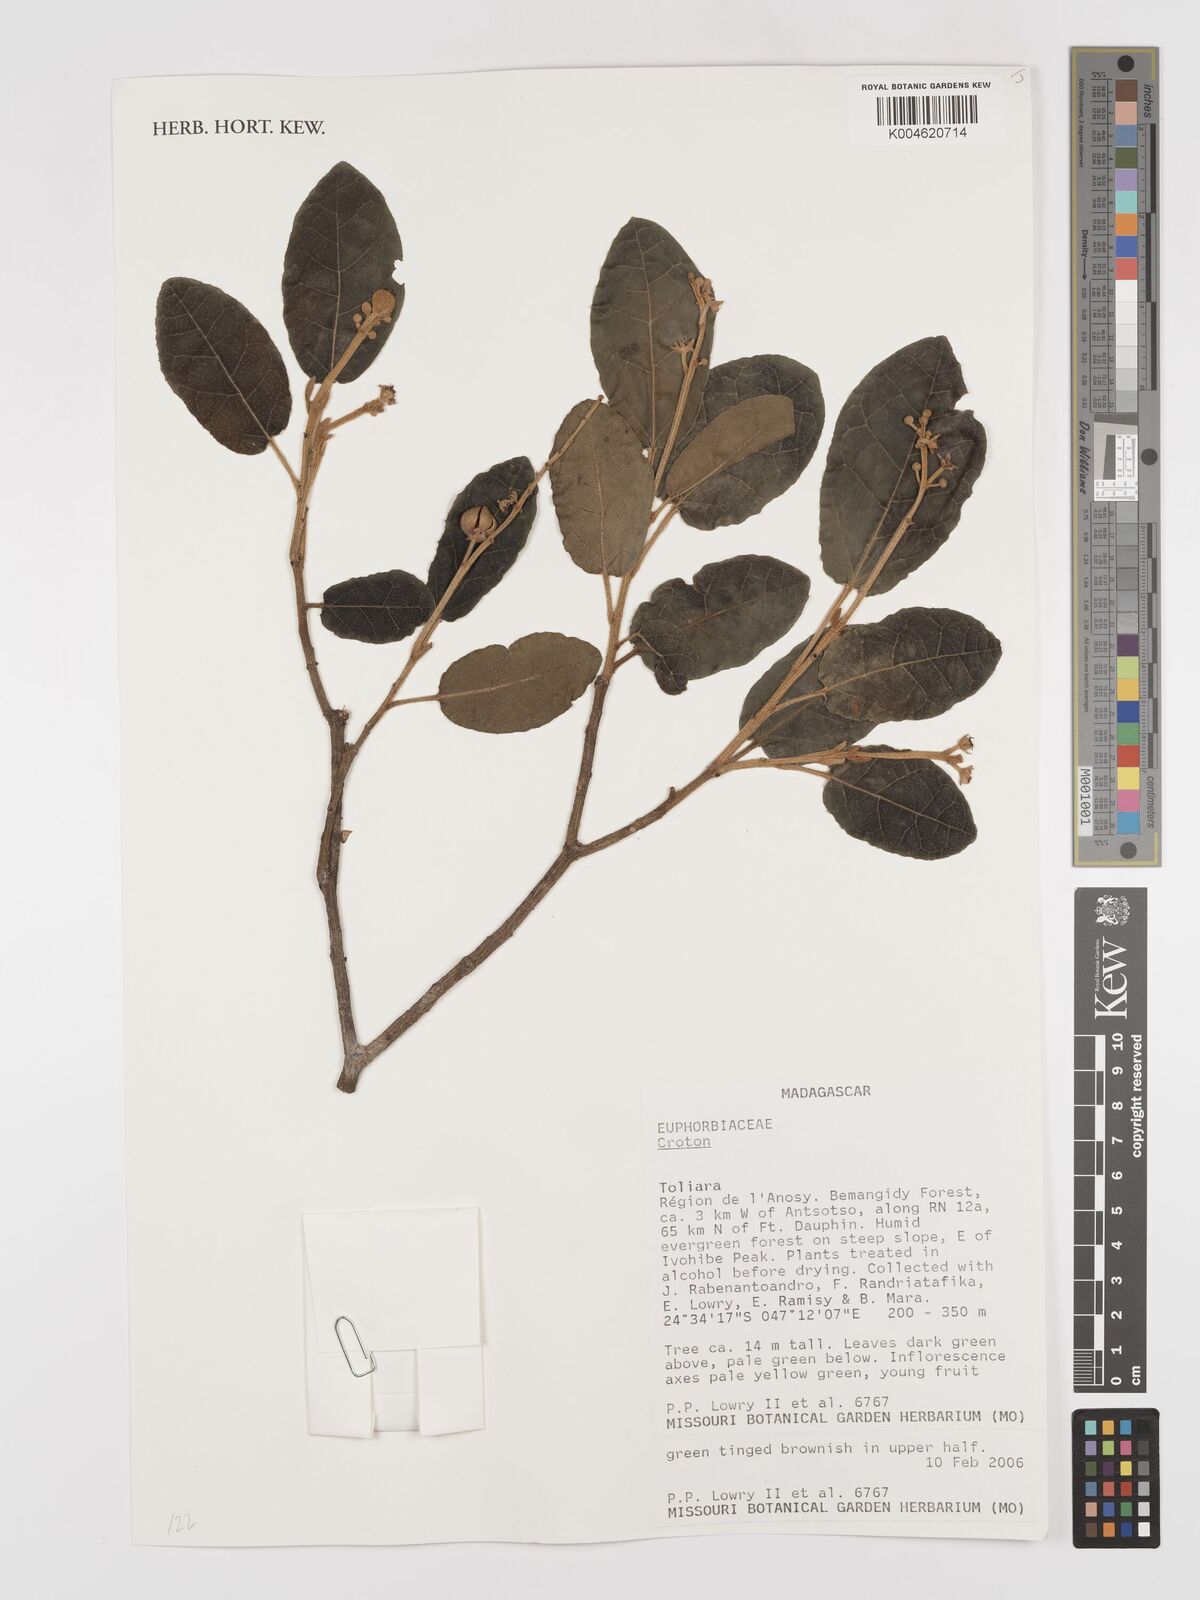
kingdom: Plantae
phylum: Tracheophyta
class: Magnoliopsida
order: Malpighiales
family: Euphorbiaceae
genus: Croton
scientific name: Croton
